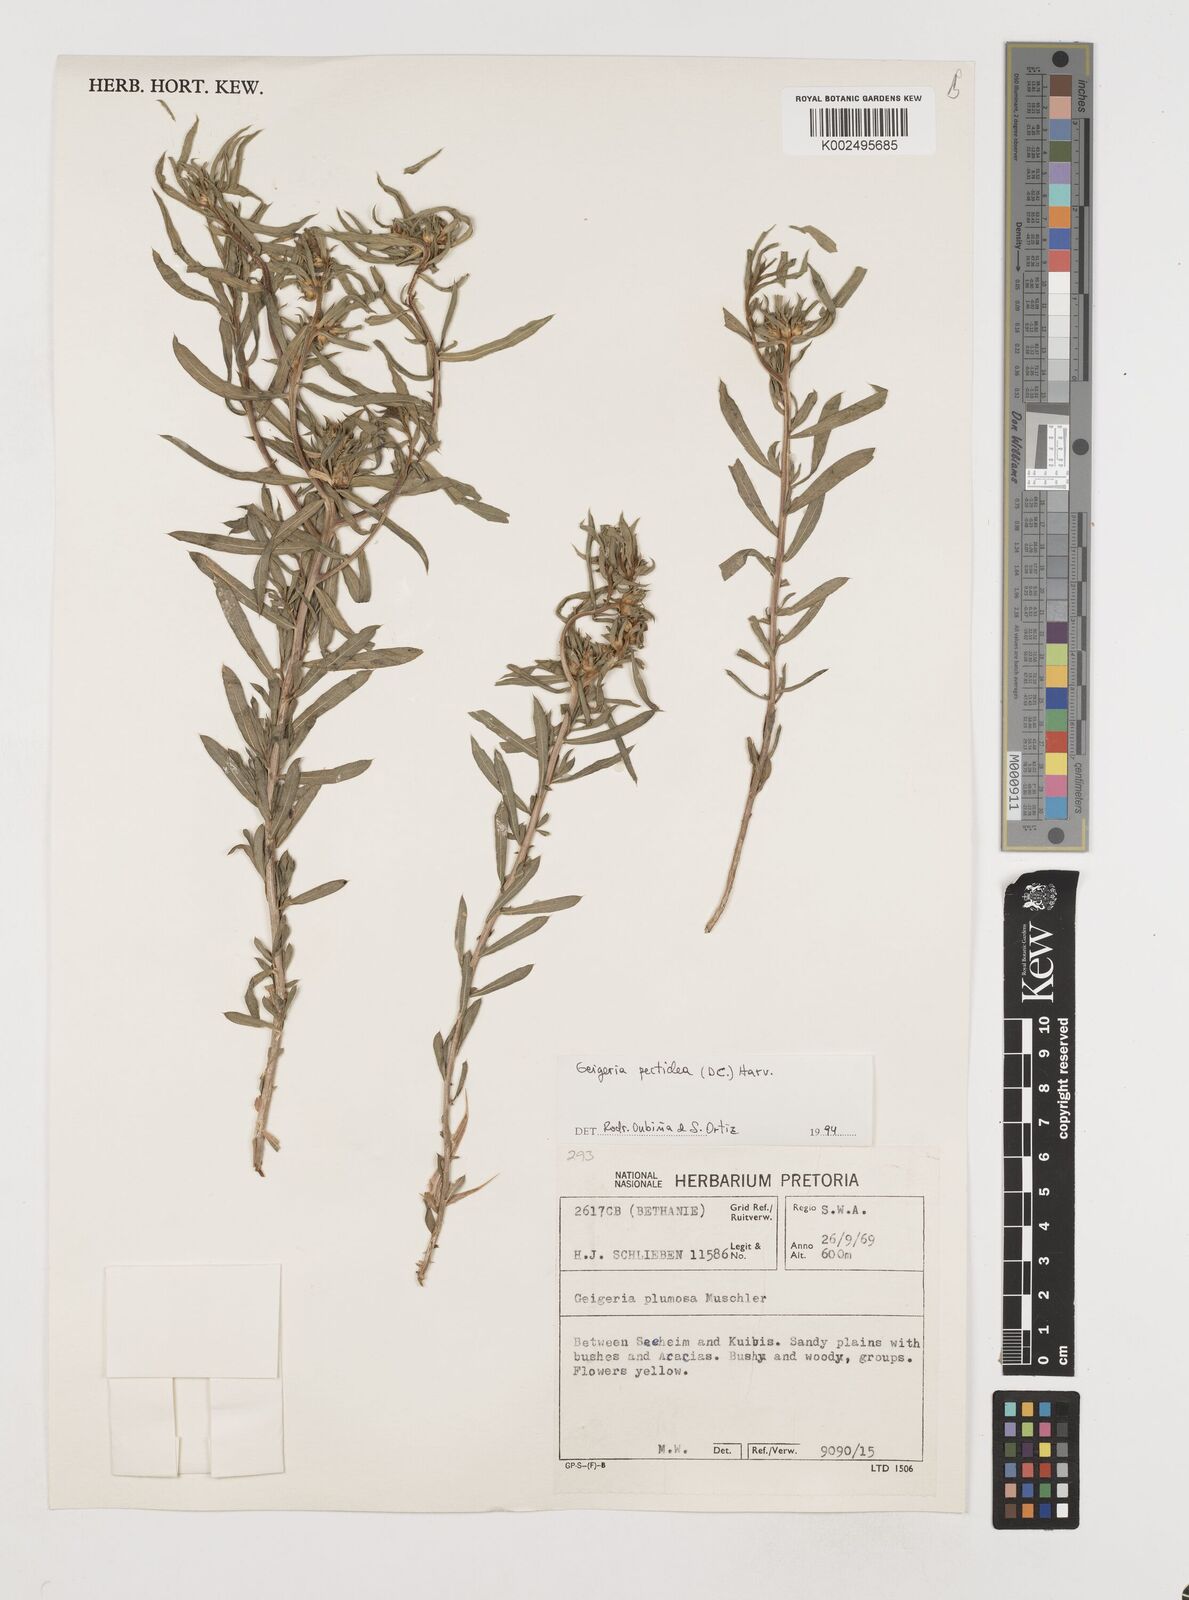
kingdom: Plantae
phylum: Tracheophyta
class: Magnoliopsida
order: Asterales
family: Asteraceae
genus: Geigeria
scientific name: Geigeria pectidea
